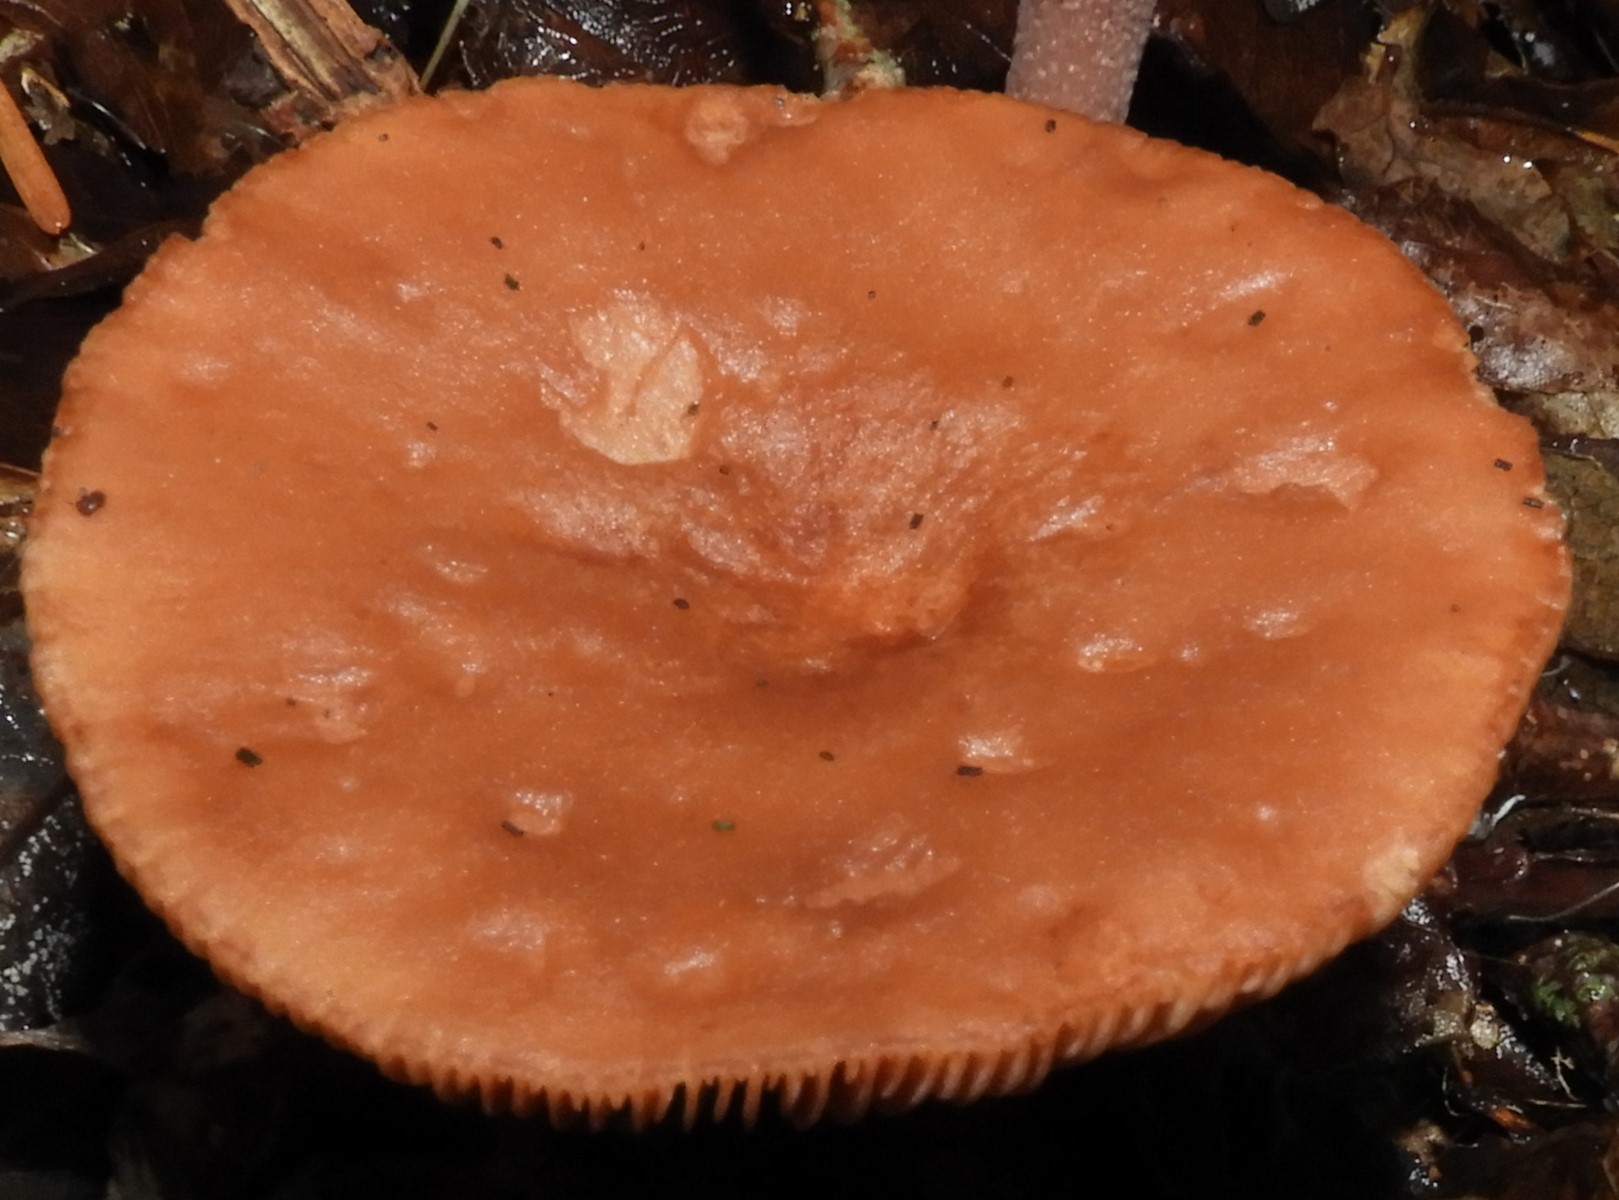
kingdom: Fungi
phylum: Basidiomycota
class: Agaricomycetes
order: Russulales
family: Russulaceae
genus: Lactarius
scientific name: Lactarius
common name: mælkehat
